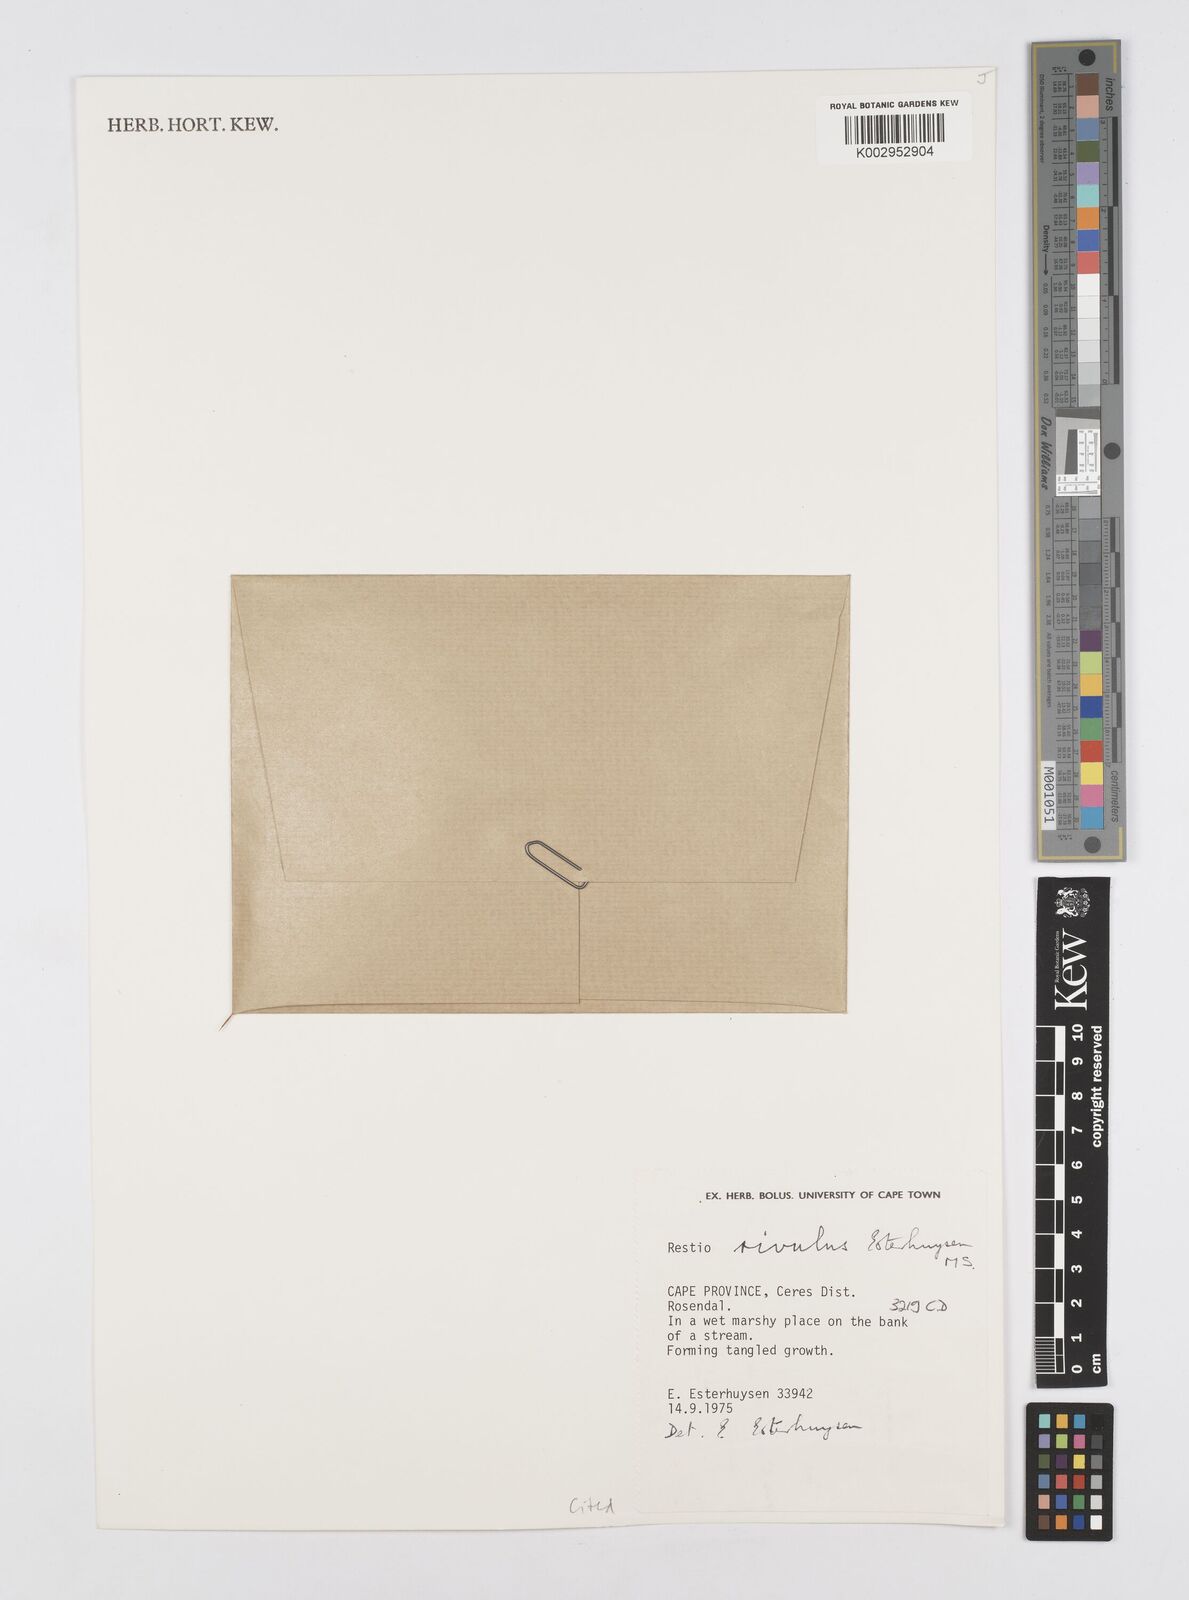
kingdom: Plantae
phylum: Tracheophyta
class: Liliopsida
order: Poales
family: Restionaceae
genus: Restio
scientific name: Restio rivulus
